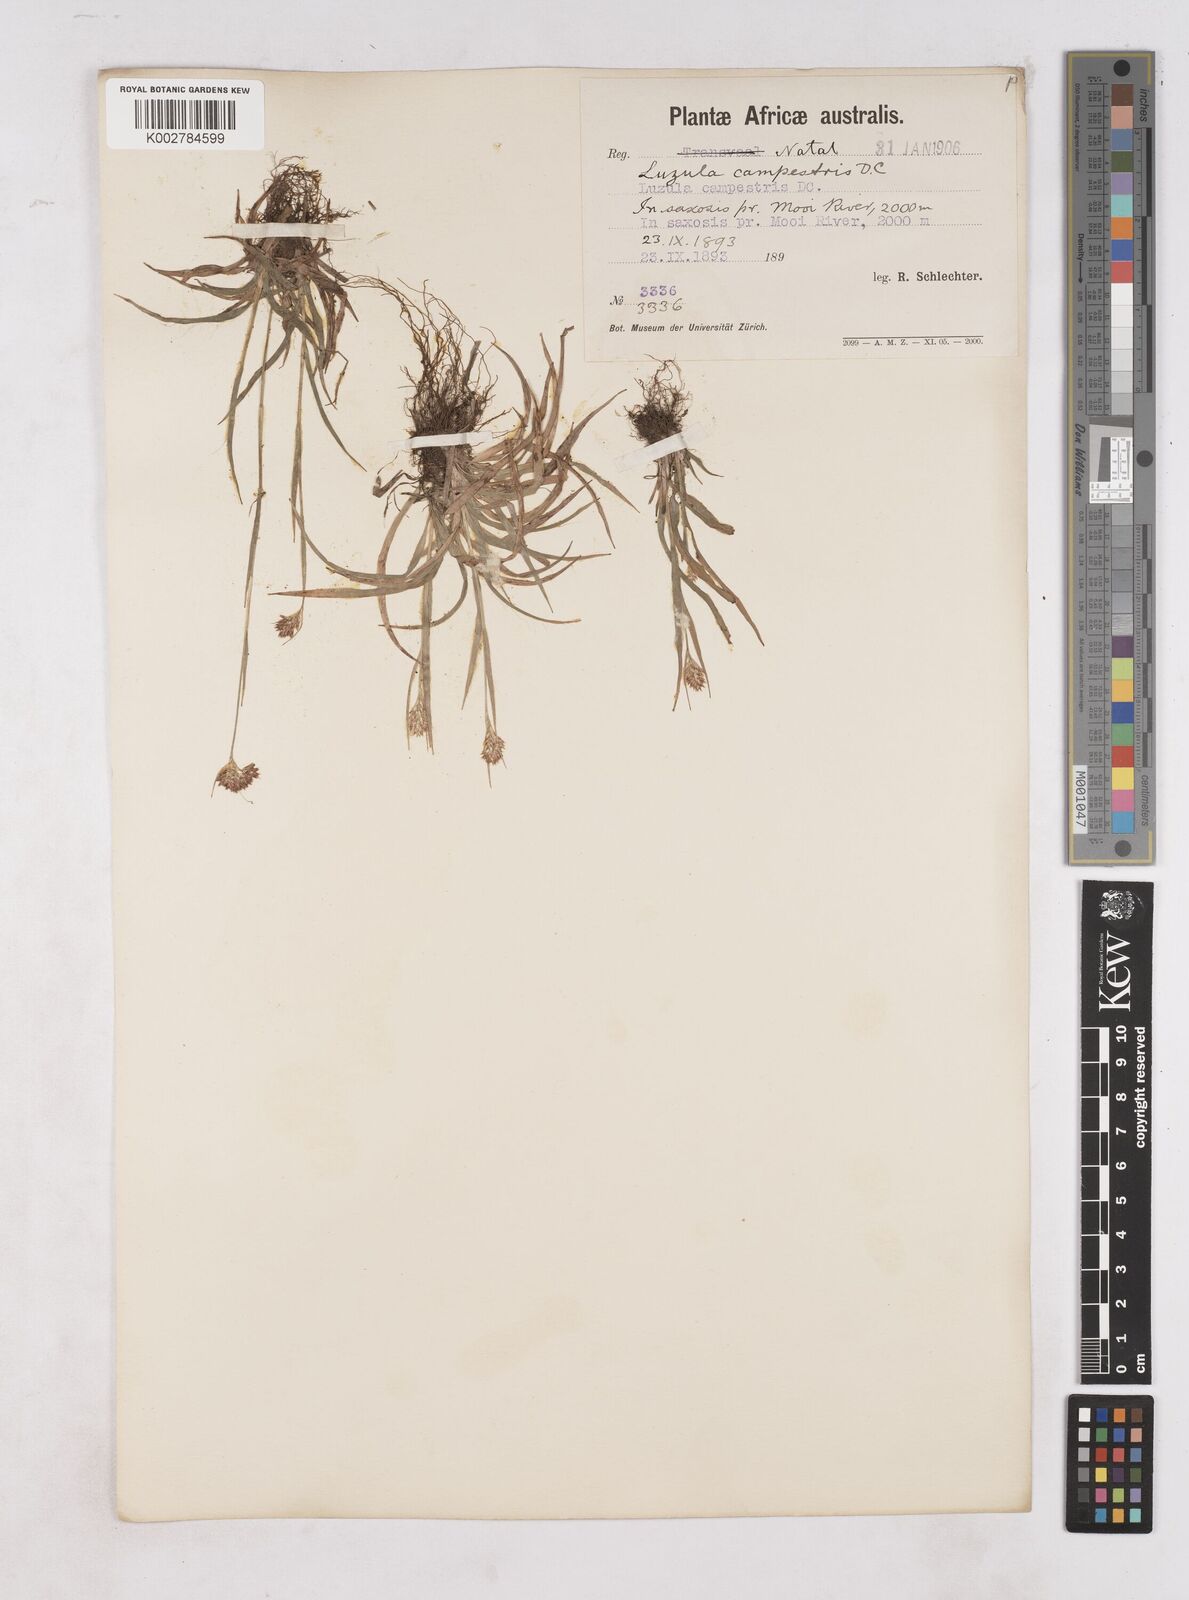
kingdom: Plantae
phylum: Tracheophyta
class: Liliopsida
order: Poales
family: Juncaceae
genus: Luzula
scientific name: Luzula campestris
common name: Field wood-rush
